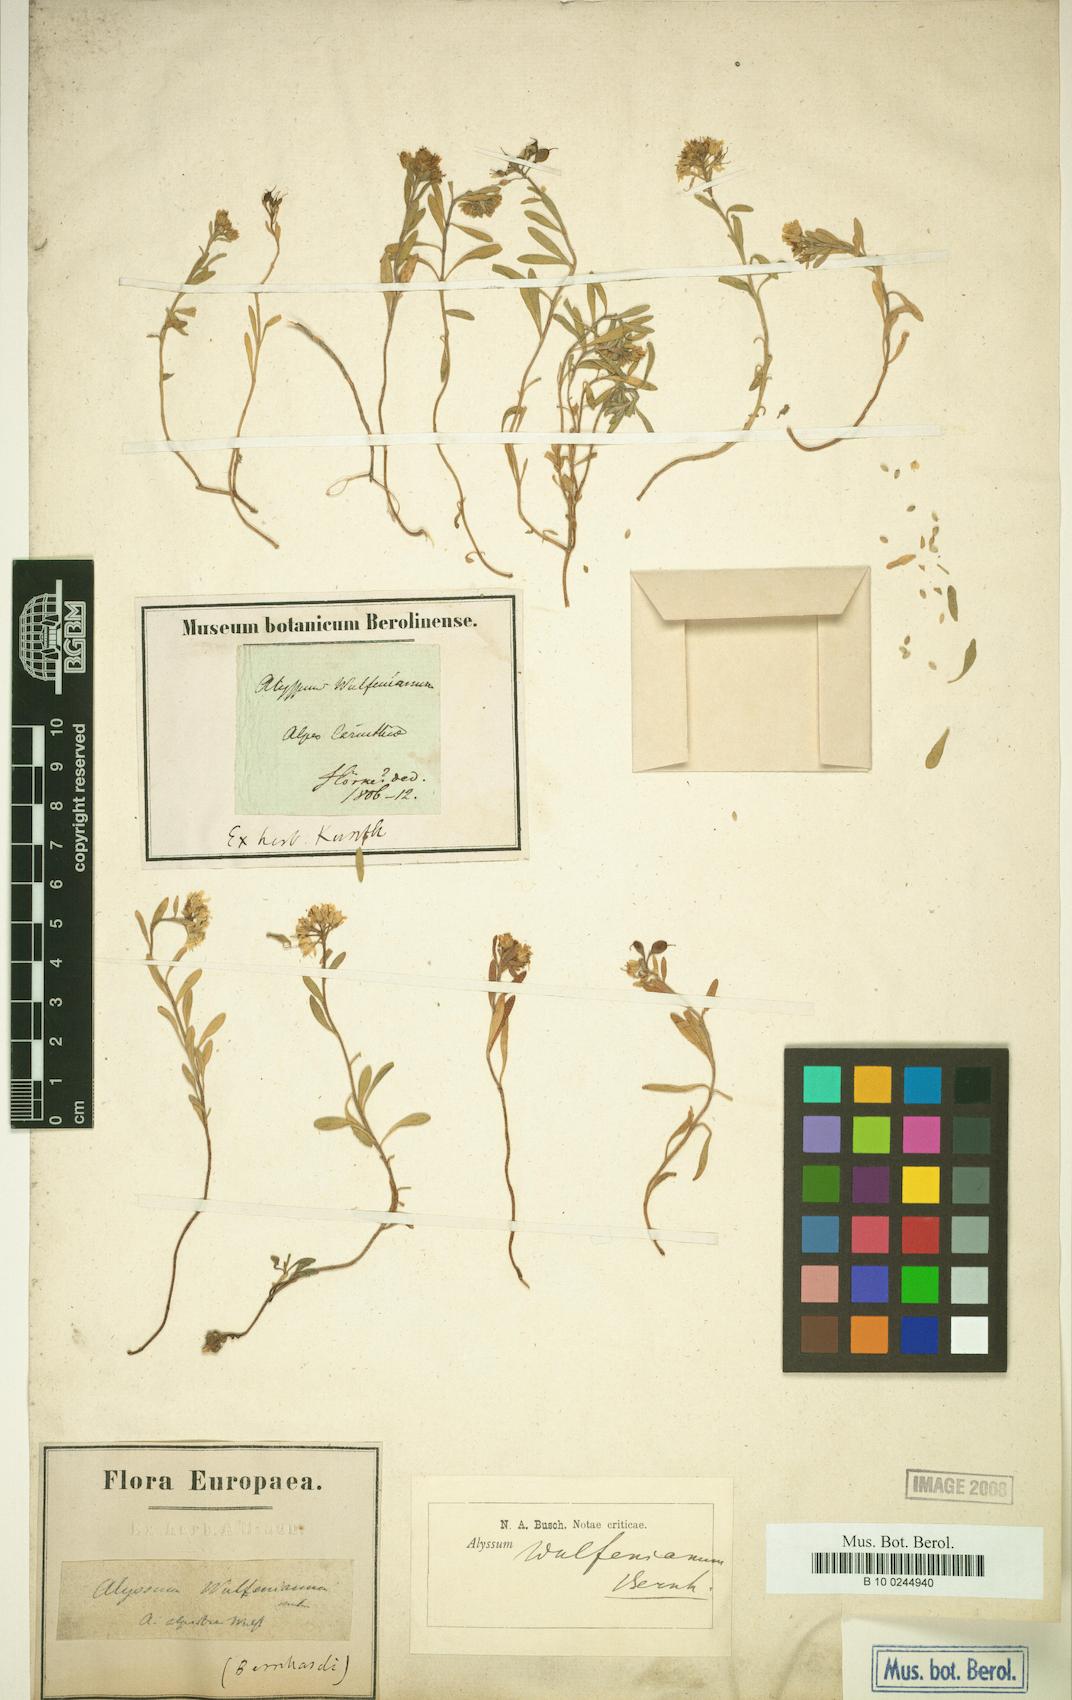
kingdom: Plantae
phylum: Tracheophyta
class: Magnoliopsida
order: Brassicales
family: Brassicaceae
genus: Alyssum
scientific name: Alyssum wulfenianum
